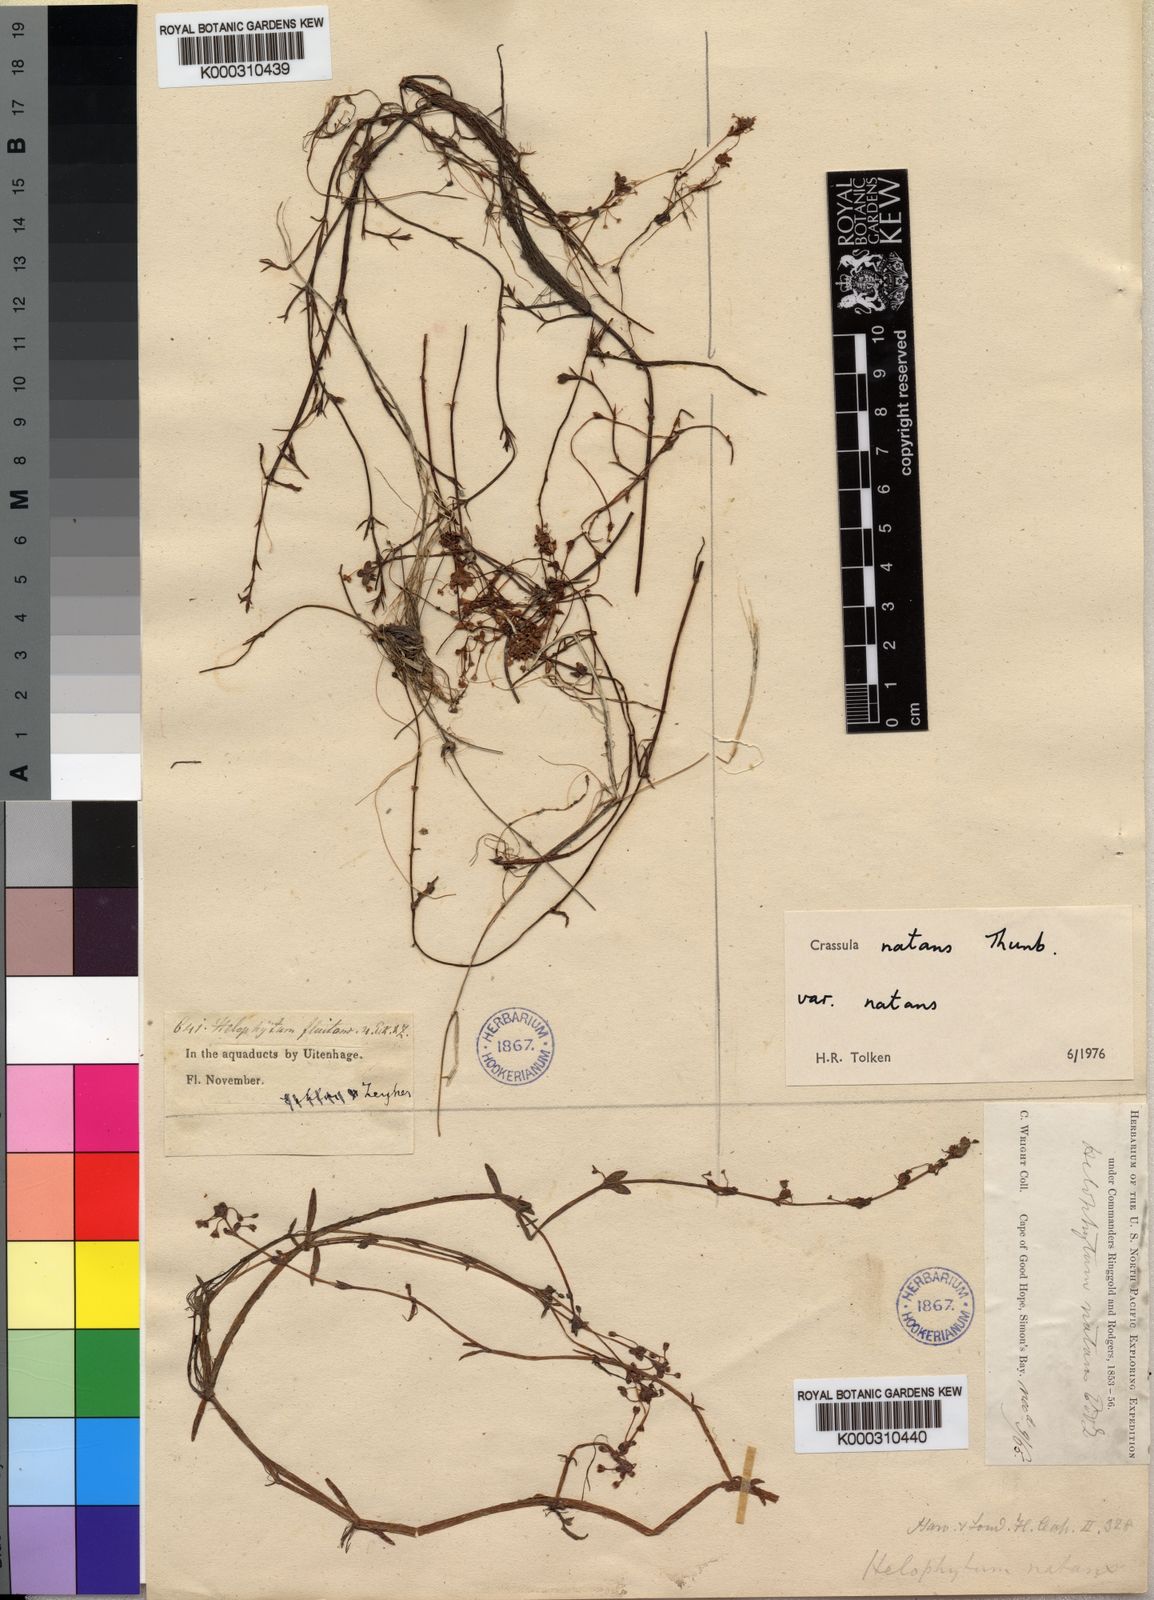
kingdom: Plantae
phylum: Tracheophyta
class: Magnoliopsida
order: Saxifragales
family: Crassulaceae
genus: Crassula
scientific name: Crassula natans
